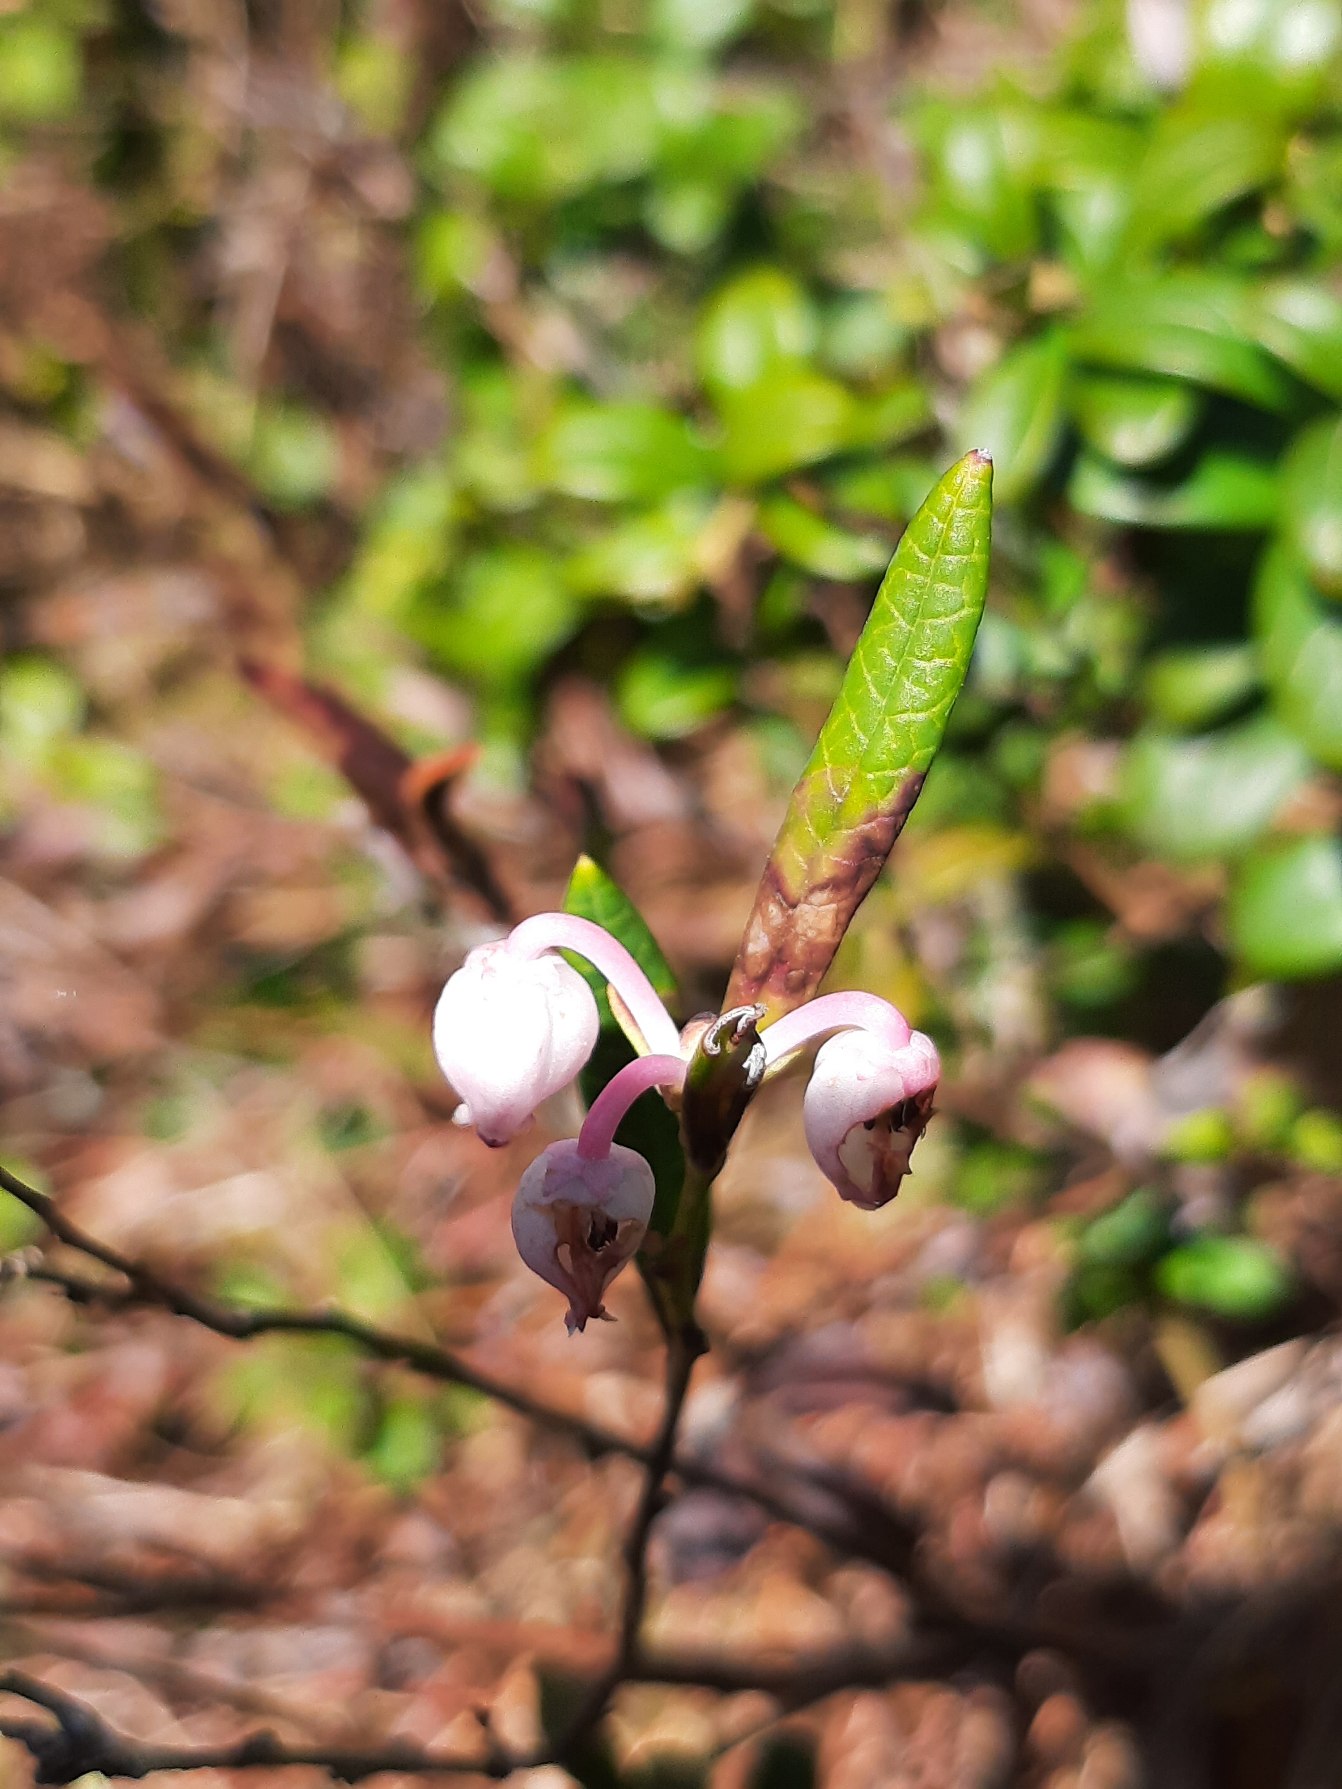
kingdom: Plantae
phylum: Tracheophyta
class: Magnoliopsida
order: Ericales
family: Ericaceae
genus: Andromeda
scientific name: Andromeda polifolia
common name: Rosmarinlyng
